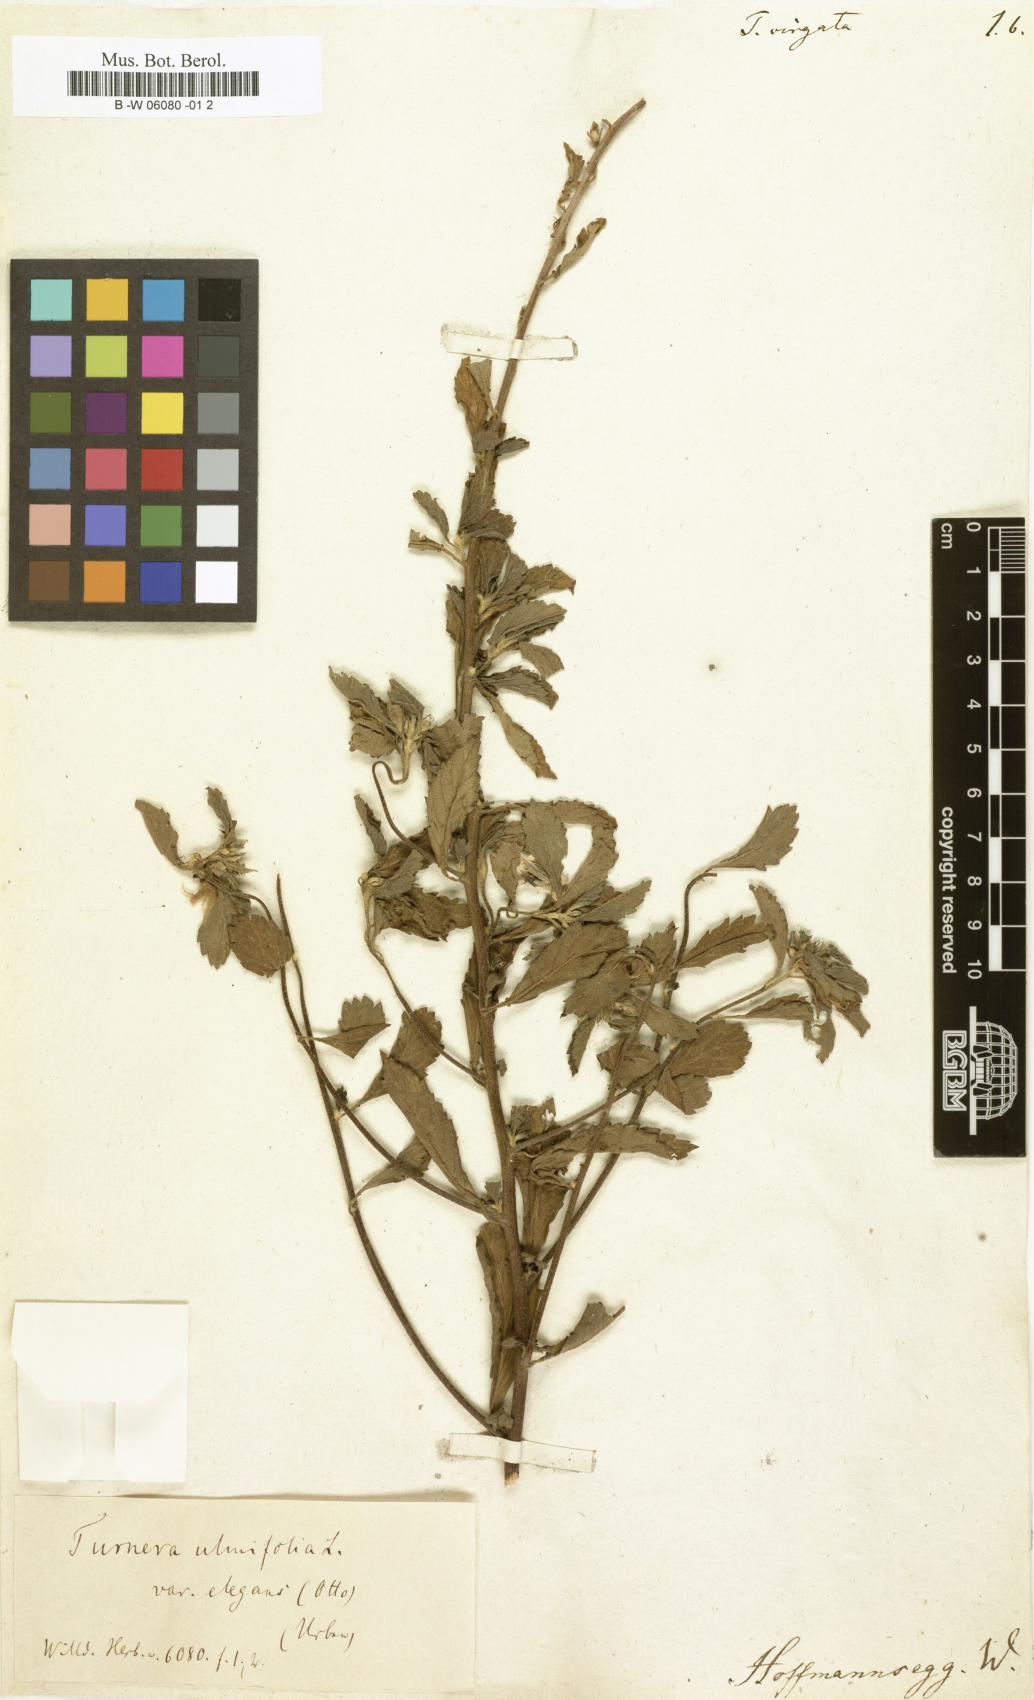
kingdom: Plantae
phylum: Tracheophyta
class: Magnoliopsida
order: Malpighiales
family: Turneraceae
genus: Turnera
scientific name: Turnera ulmifolia
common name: Ramgoat dashalong
